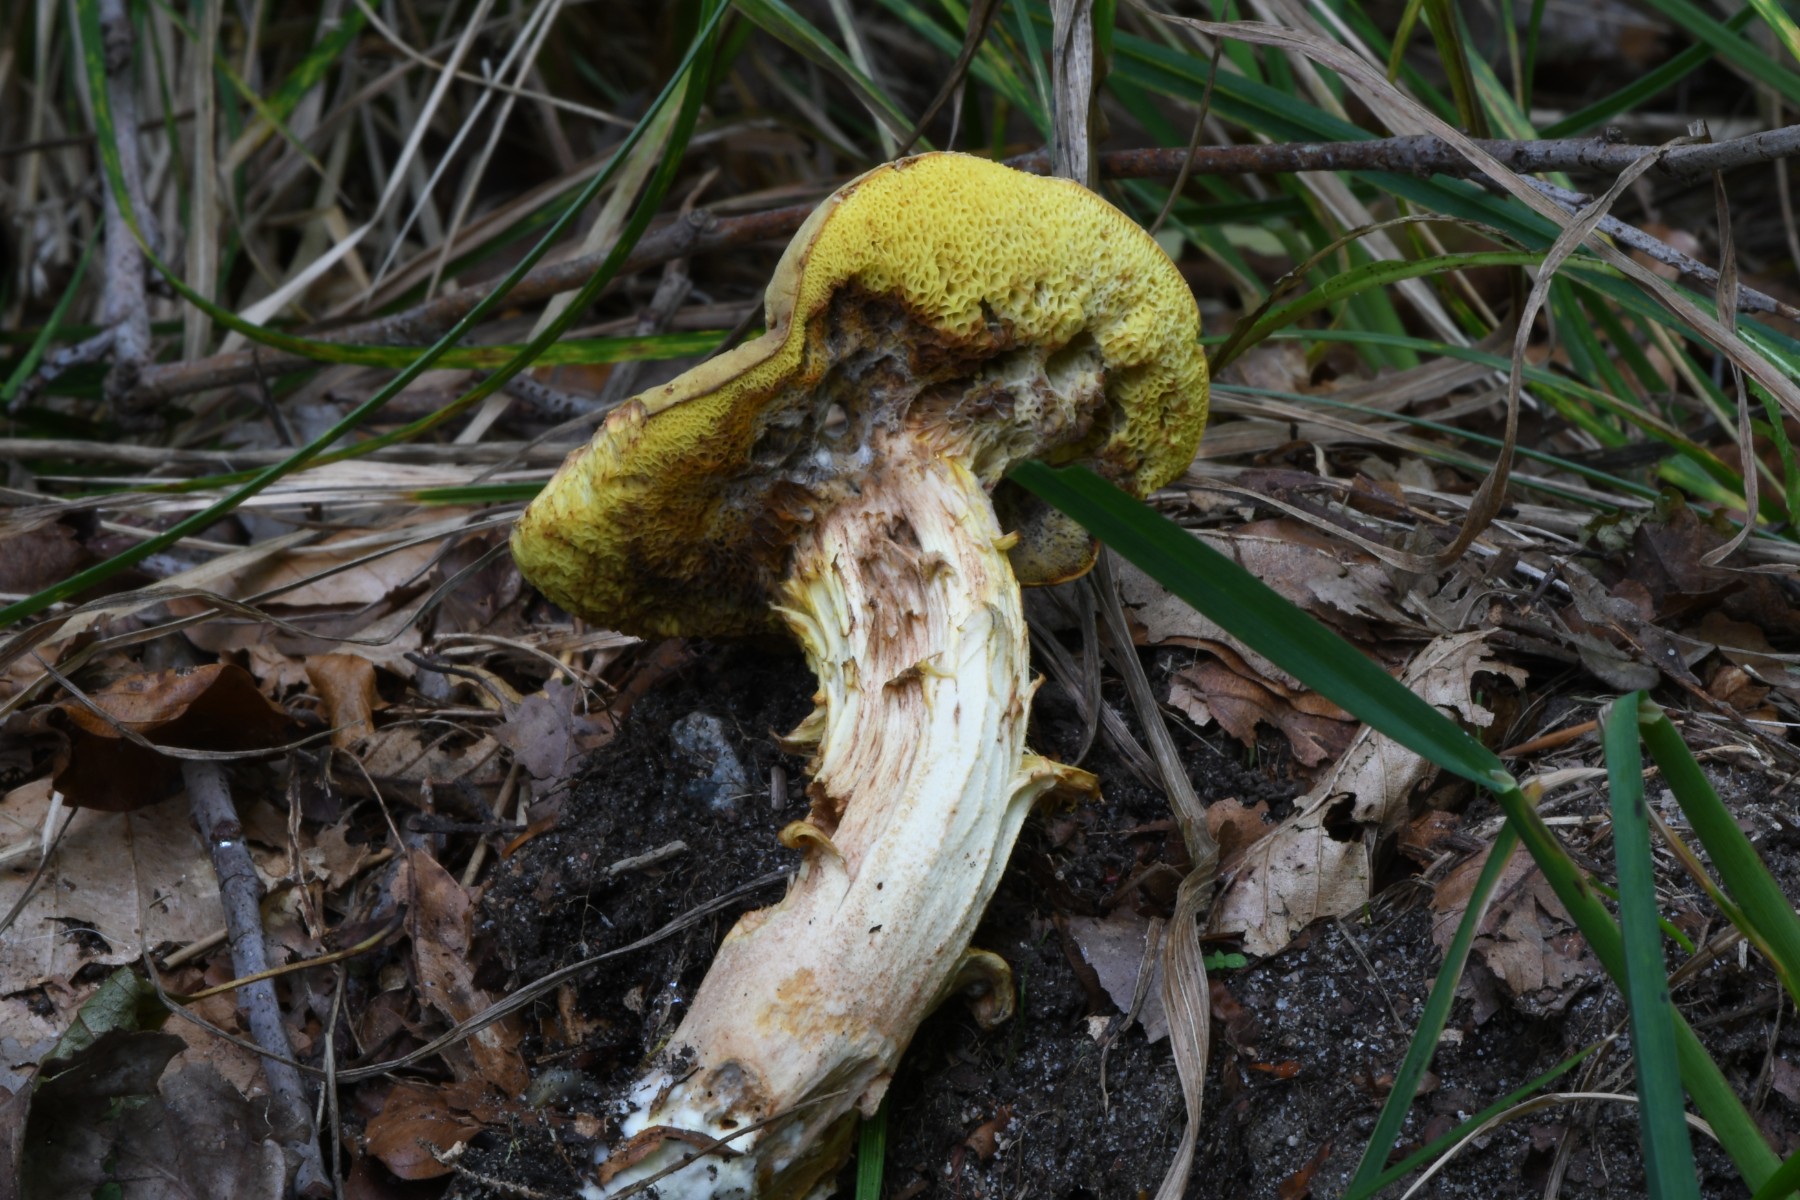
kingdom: Fungi
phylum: Basidiomycota
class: Agaricomycetes
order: Boletales
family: Boletaceae
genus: Xerocomus
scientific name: Xerocomus ferrugineus
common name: vaskeskinds-rørhat
